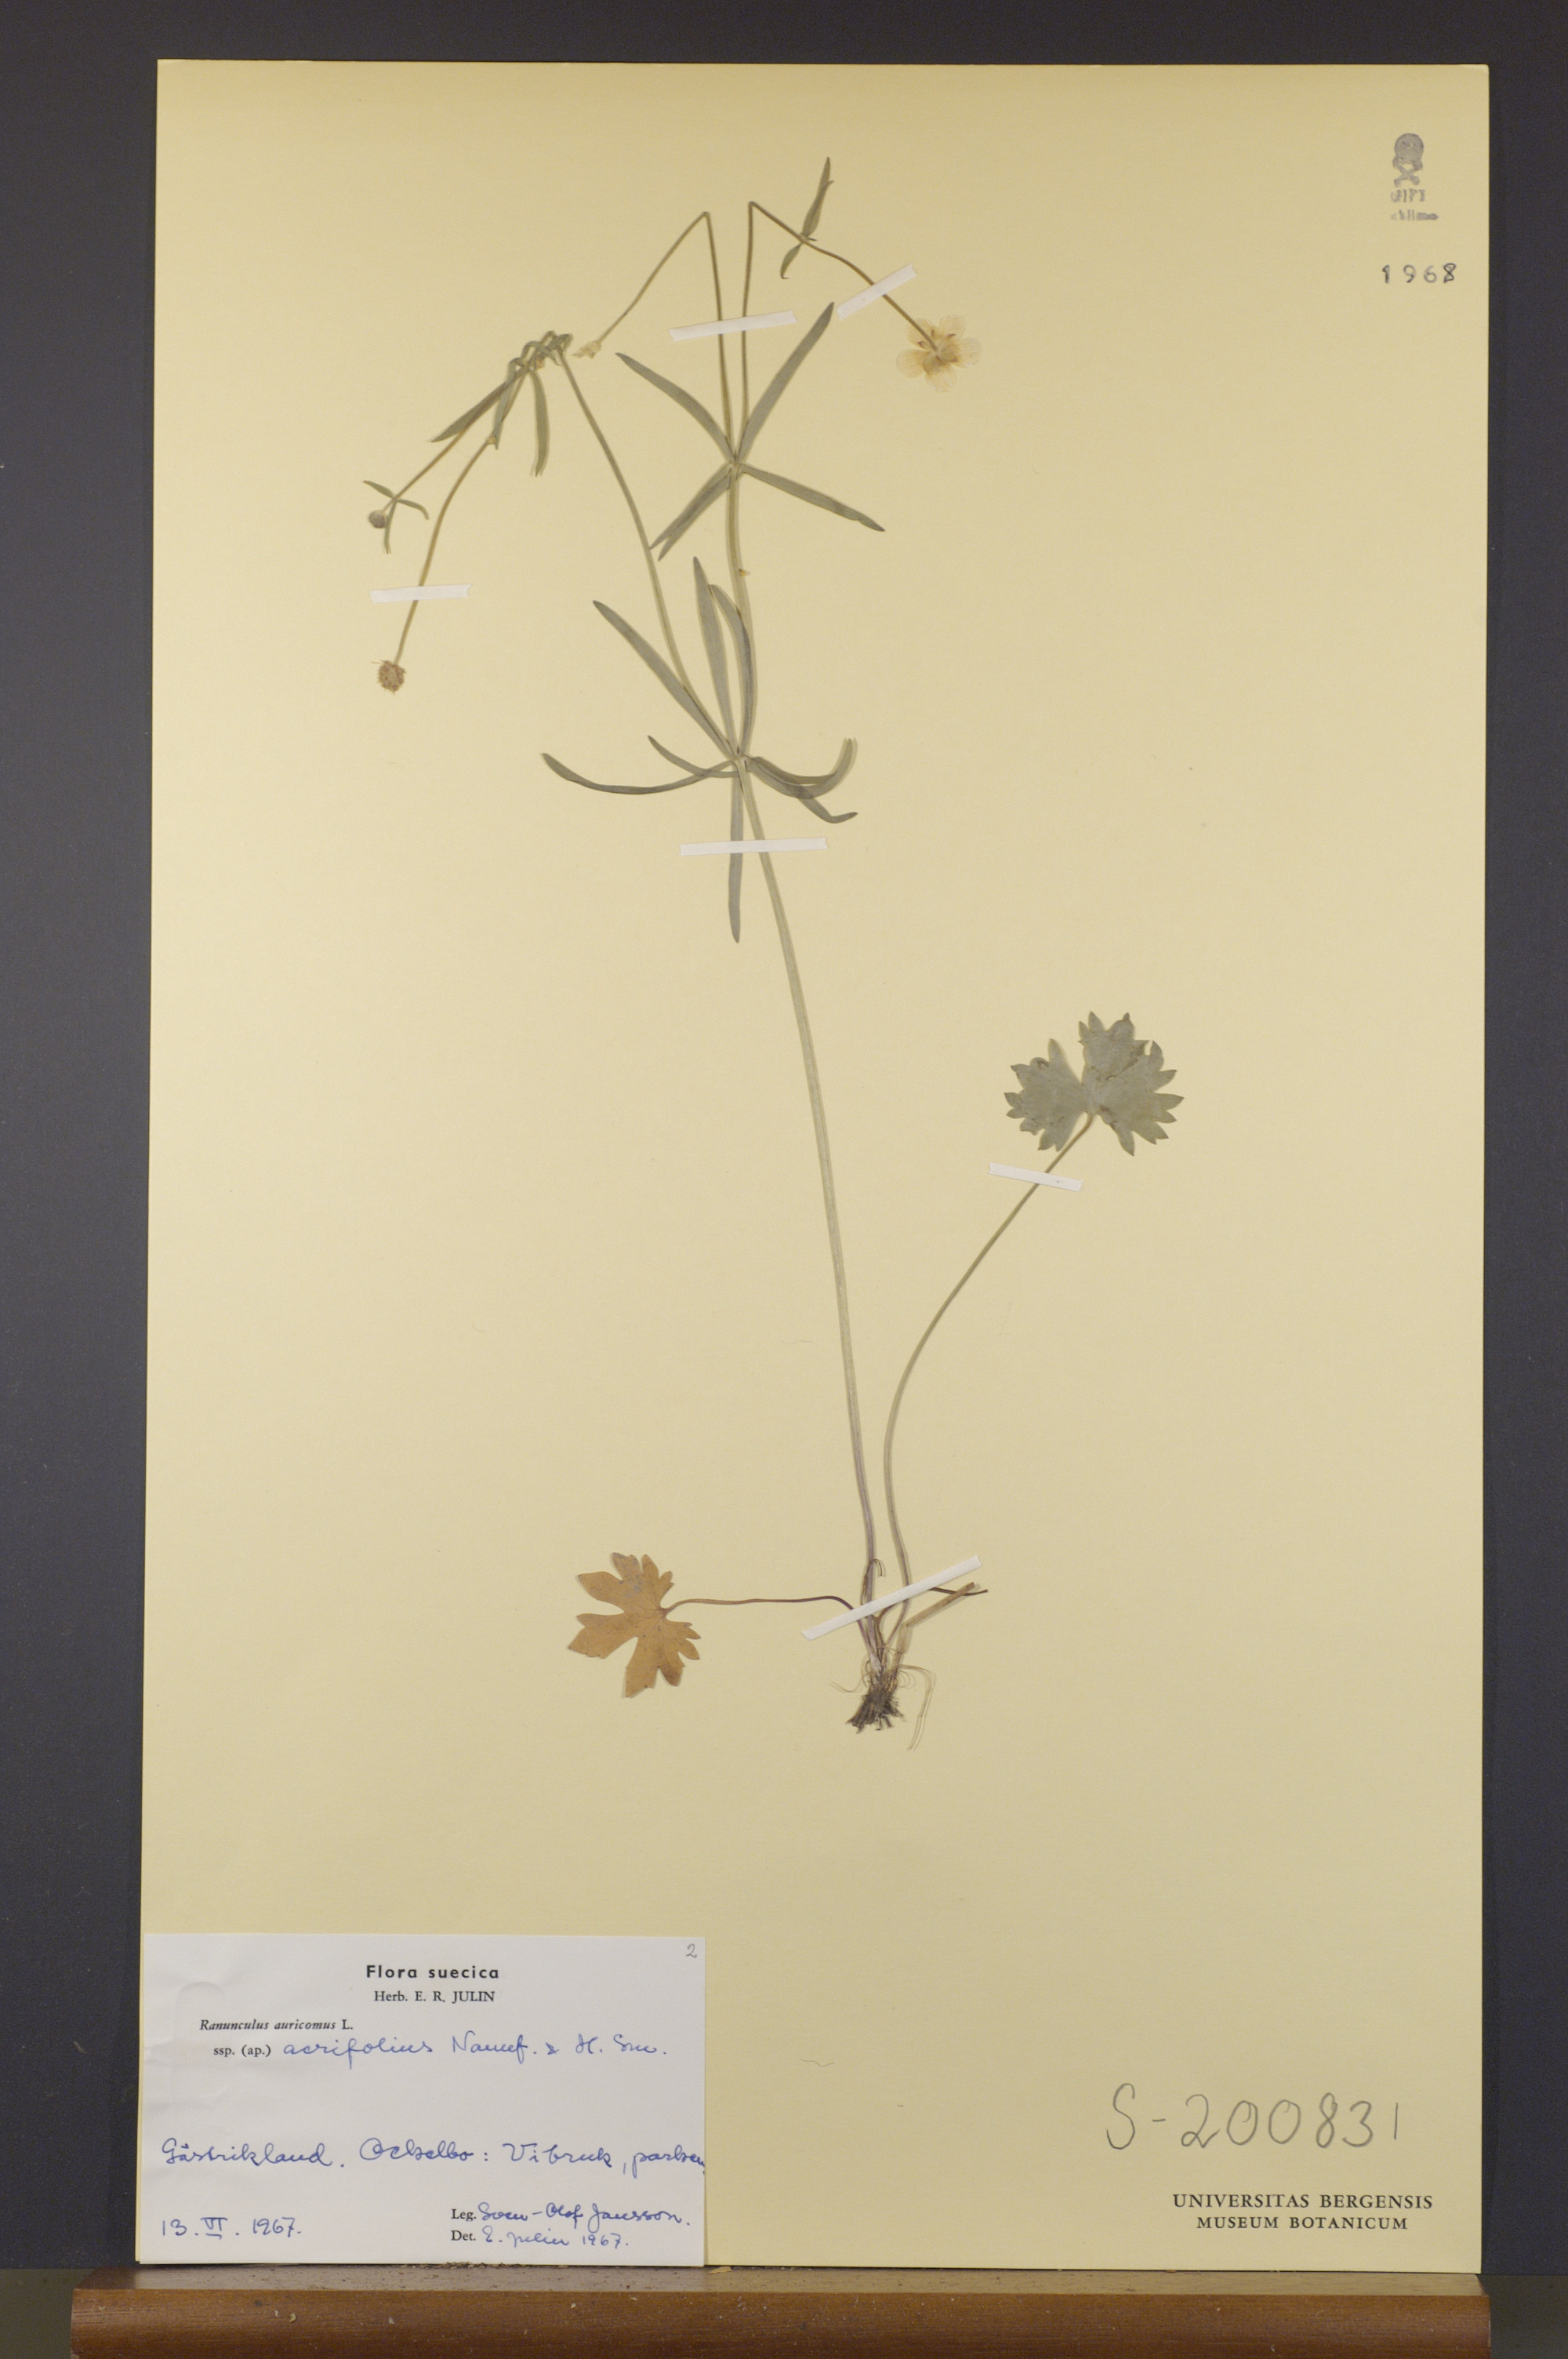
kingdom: Plantae
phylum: Tracheophyta
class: Magnoliopsida
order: Ranunculales
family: Ranunculaceae
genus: Ranunculus
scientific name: Ranunculus acrifolius
